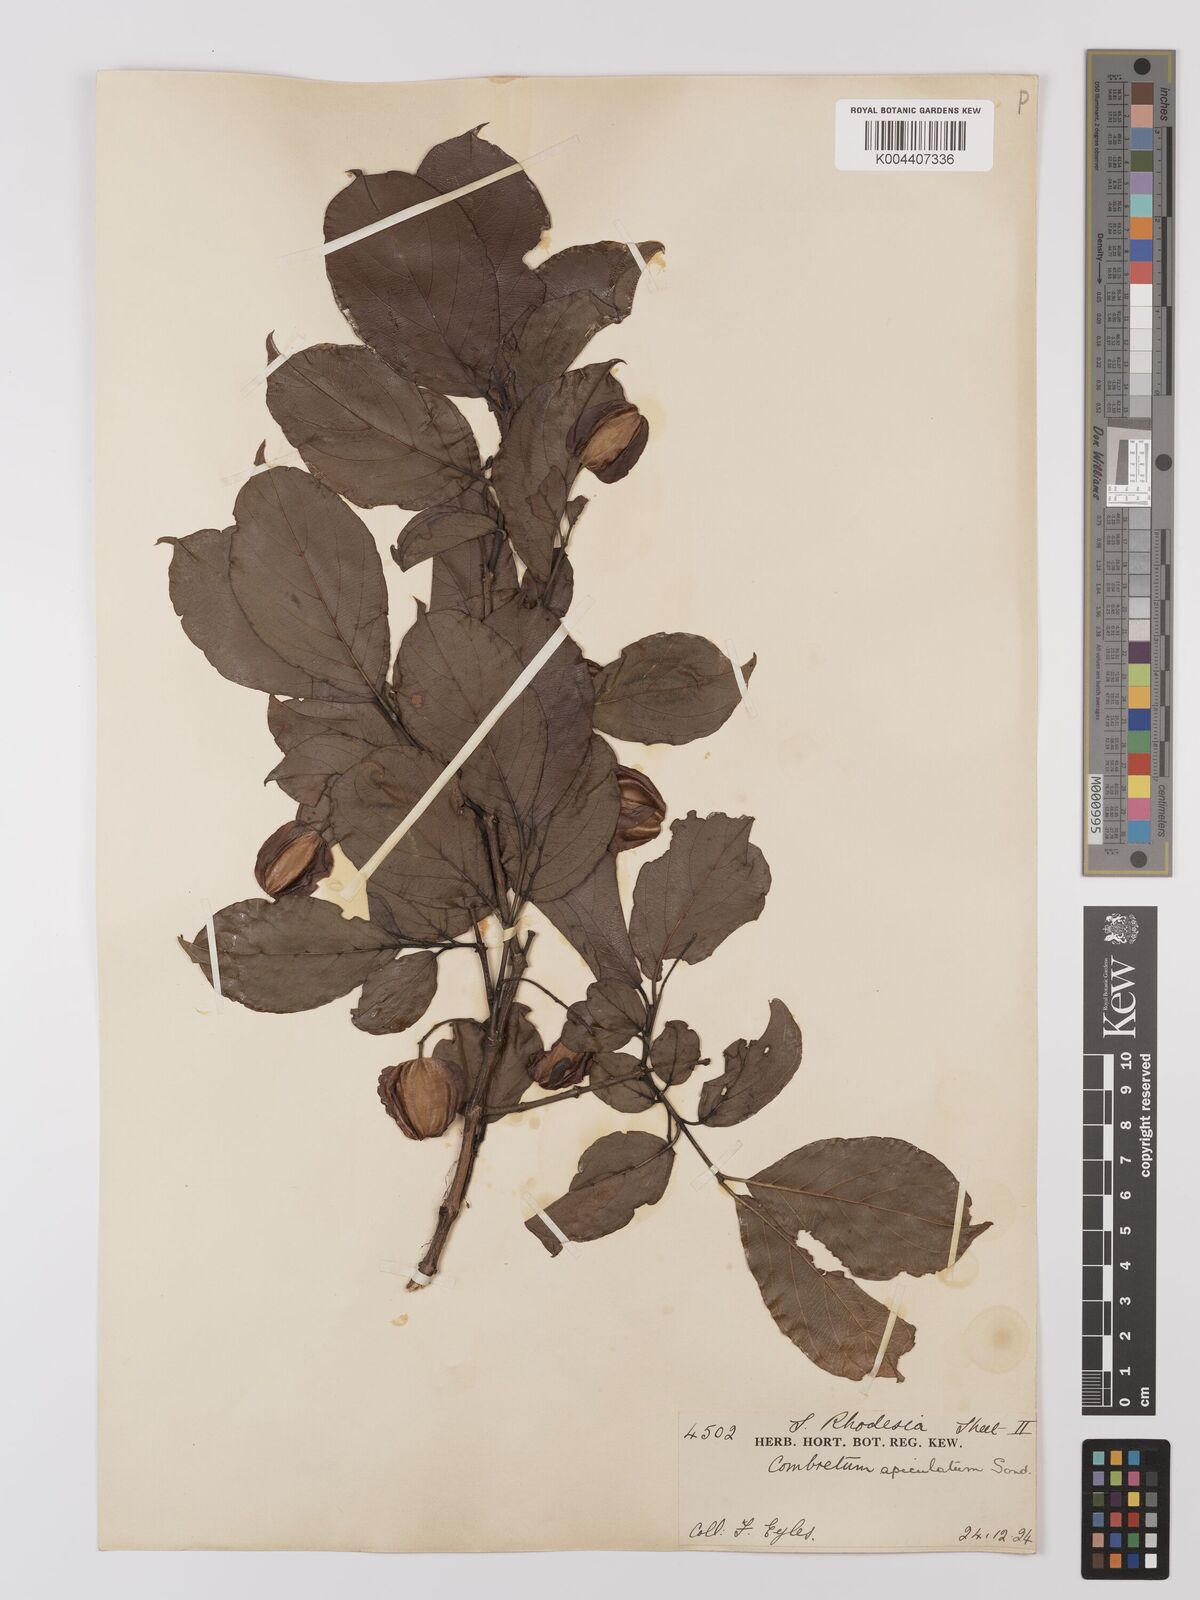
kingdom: Plantae
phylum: Tracheophyta
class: Magnoliopsida
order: Myrtales
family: Combretaceae
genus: Combretum
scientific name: Combretum apiculatum
